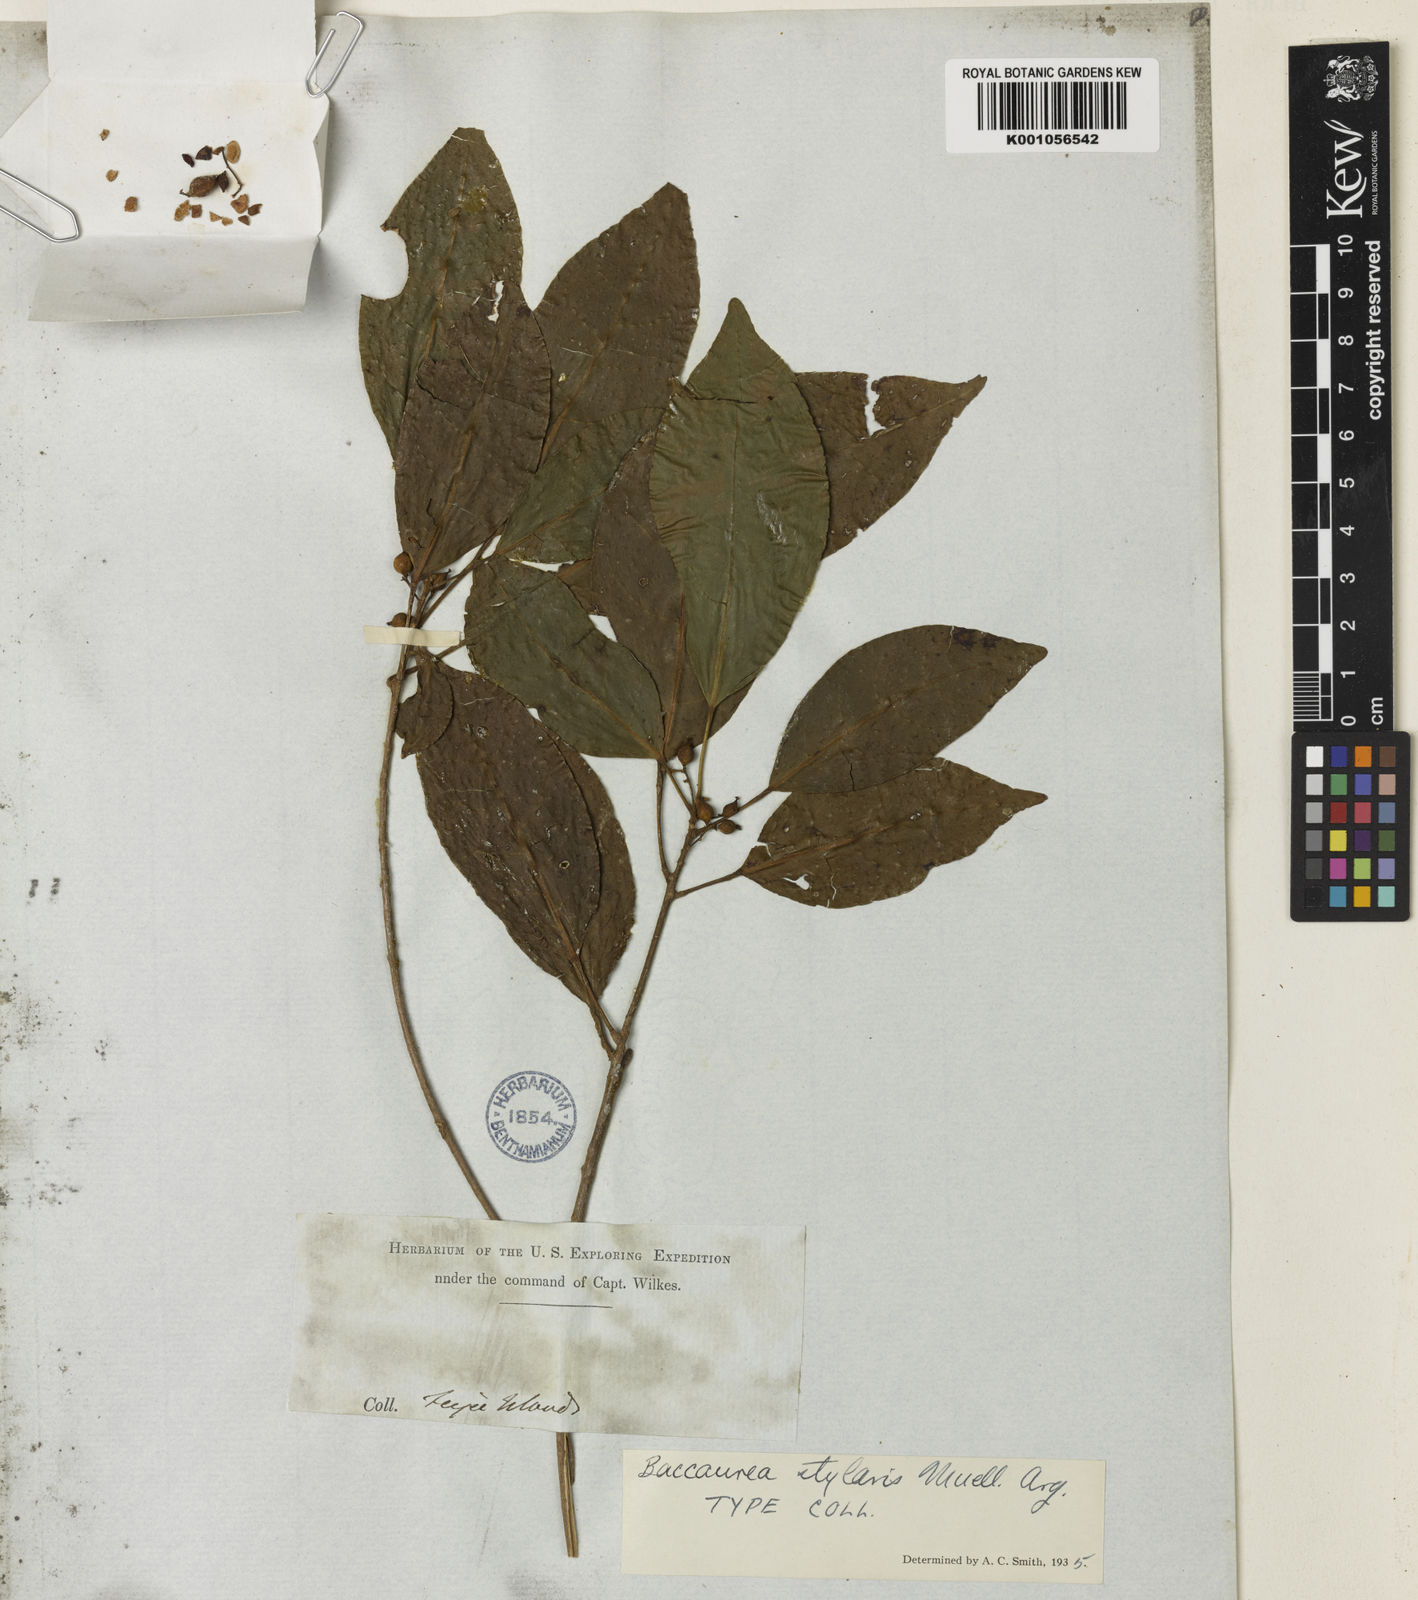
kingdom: Plantae
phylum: Tracheophyta
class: Magnoliopsida
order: Malpighiales
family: Phyllanthaceae
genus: Nothobaccaurea
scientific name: Nothobaccaurea
